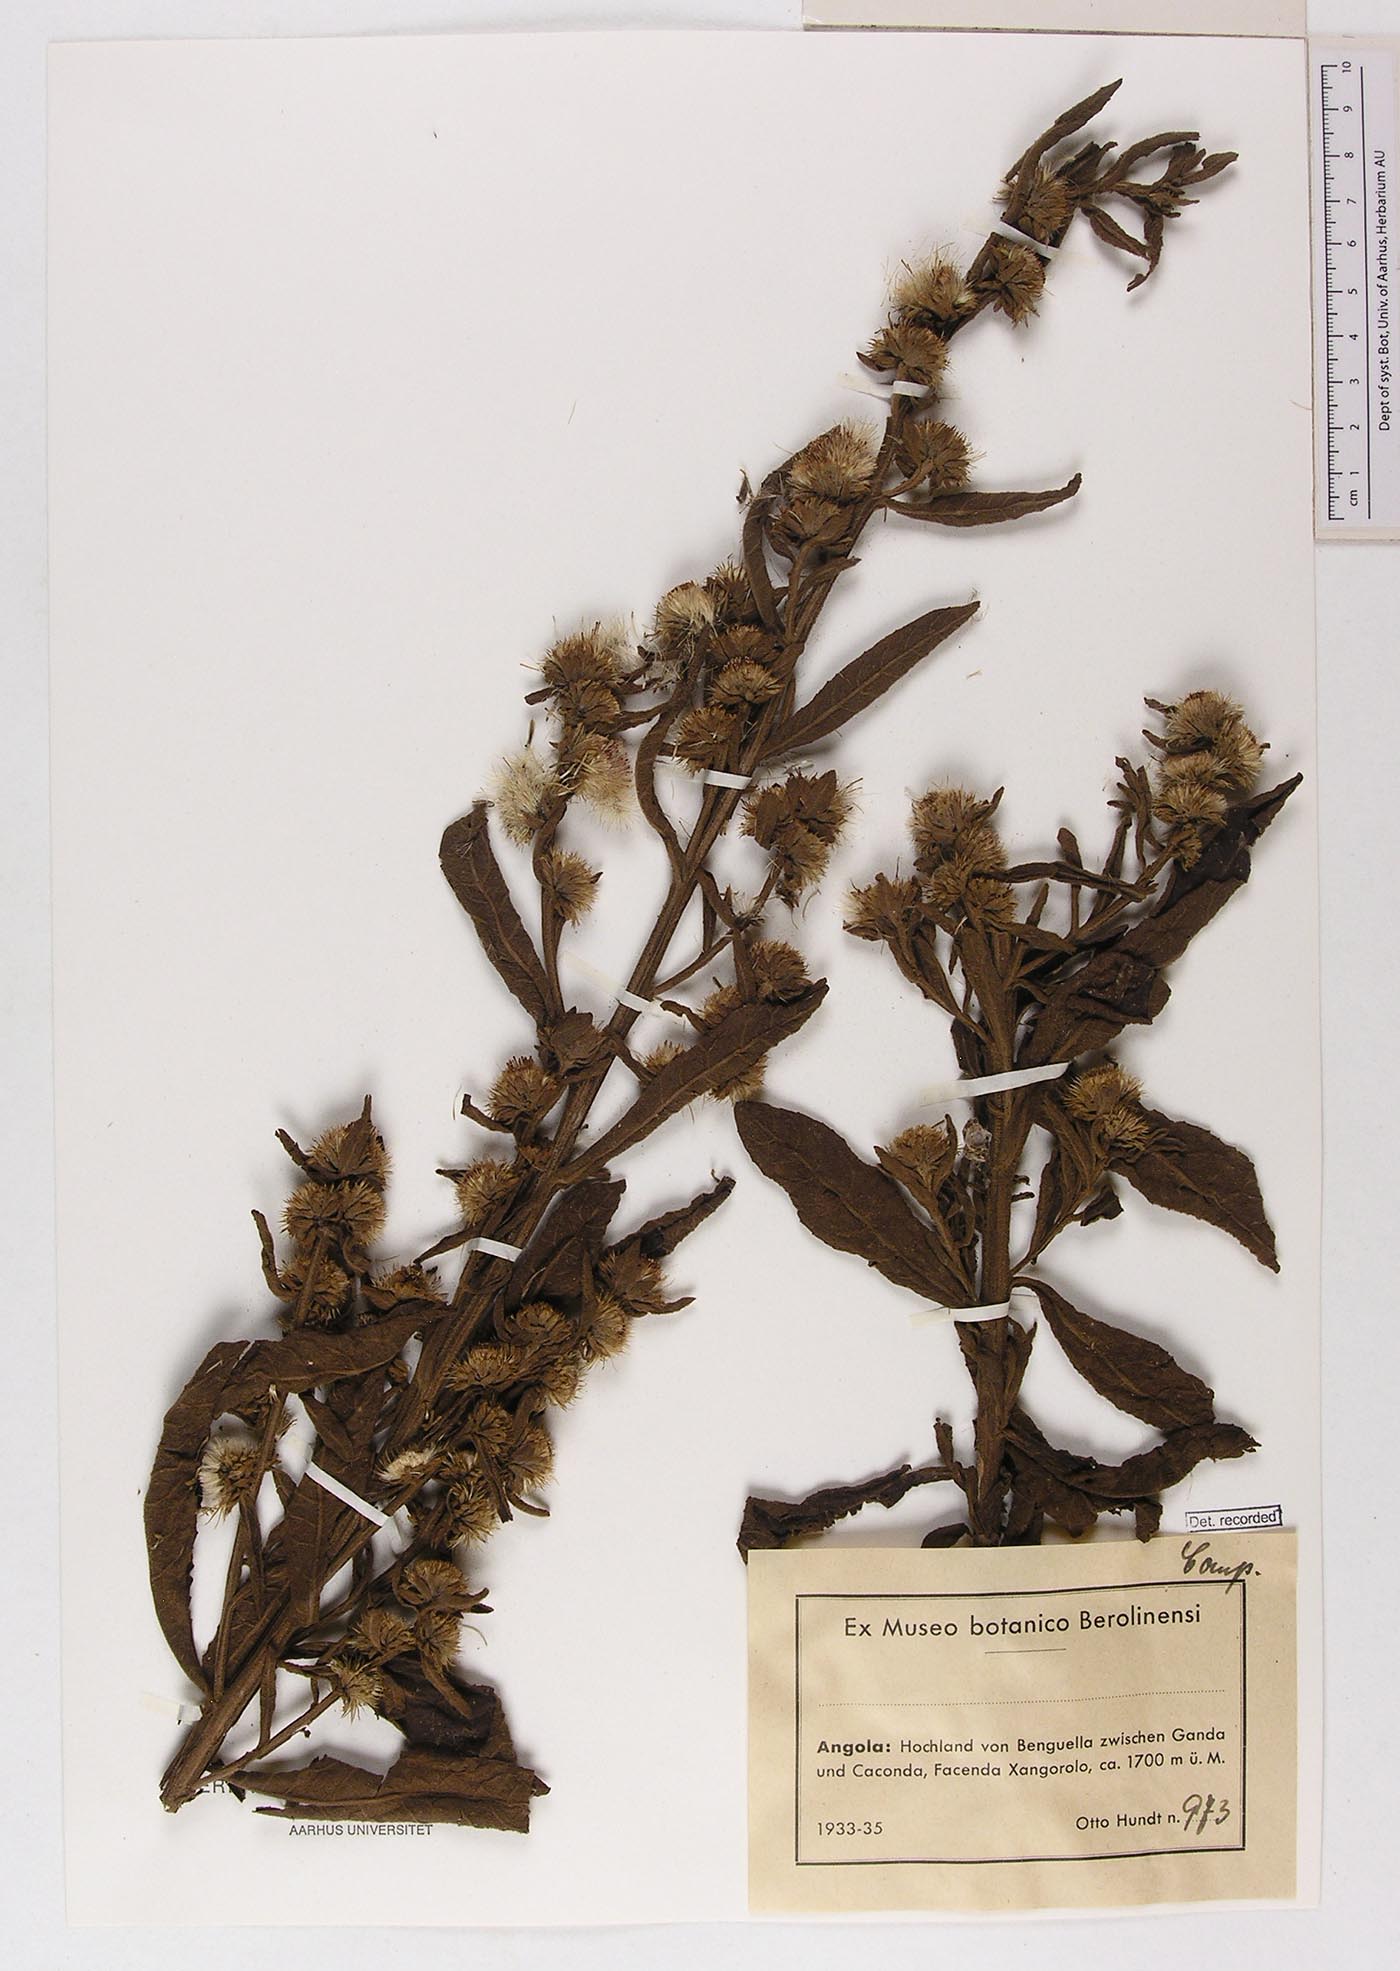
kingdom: Plantae
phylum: Tracheophyta
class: Magnoliopsida
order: Asterales
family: Asteraceae
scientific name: Asteraceae
